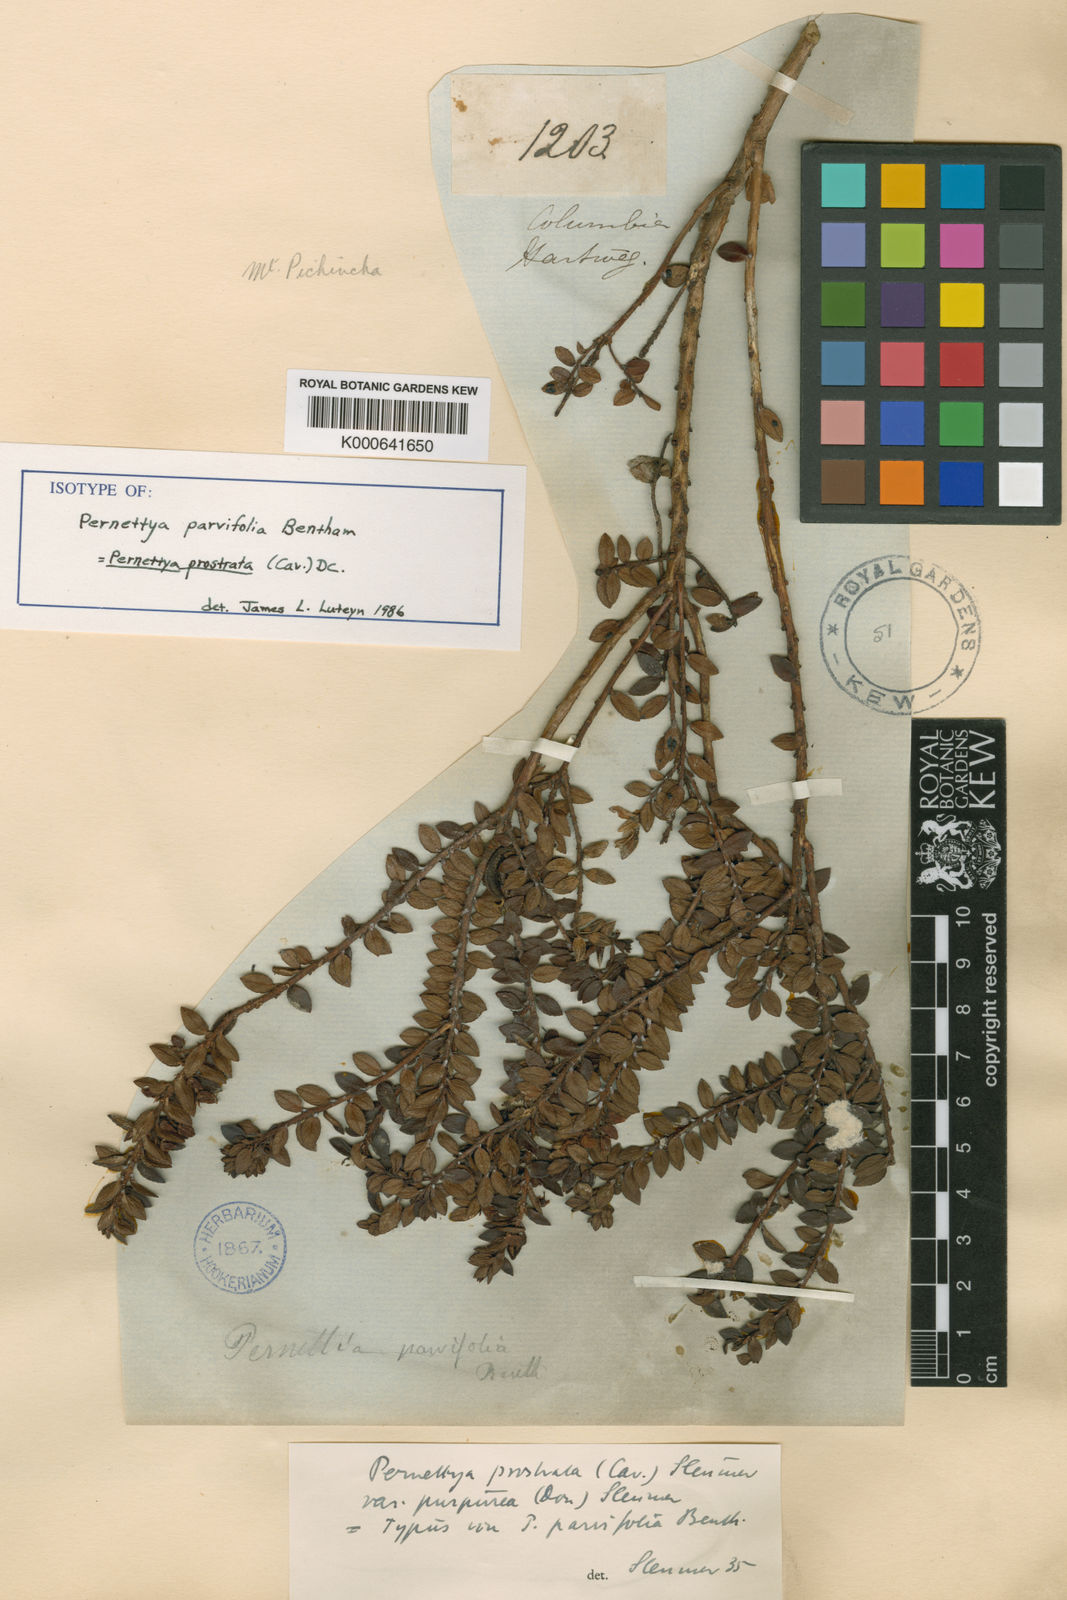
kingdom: Plantae
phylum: Tracheophyta
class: Magnoliopsida
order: Ericales
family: Ericaceae
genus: Gaultheria
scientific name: Gaultheria myrsinoides
